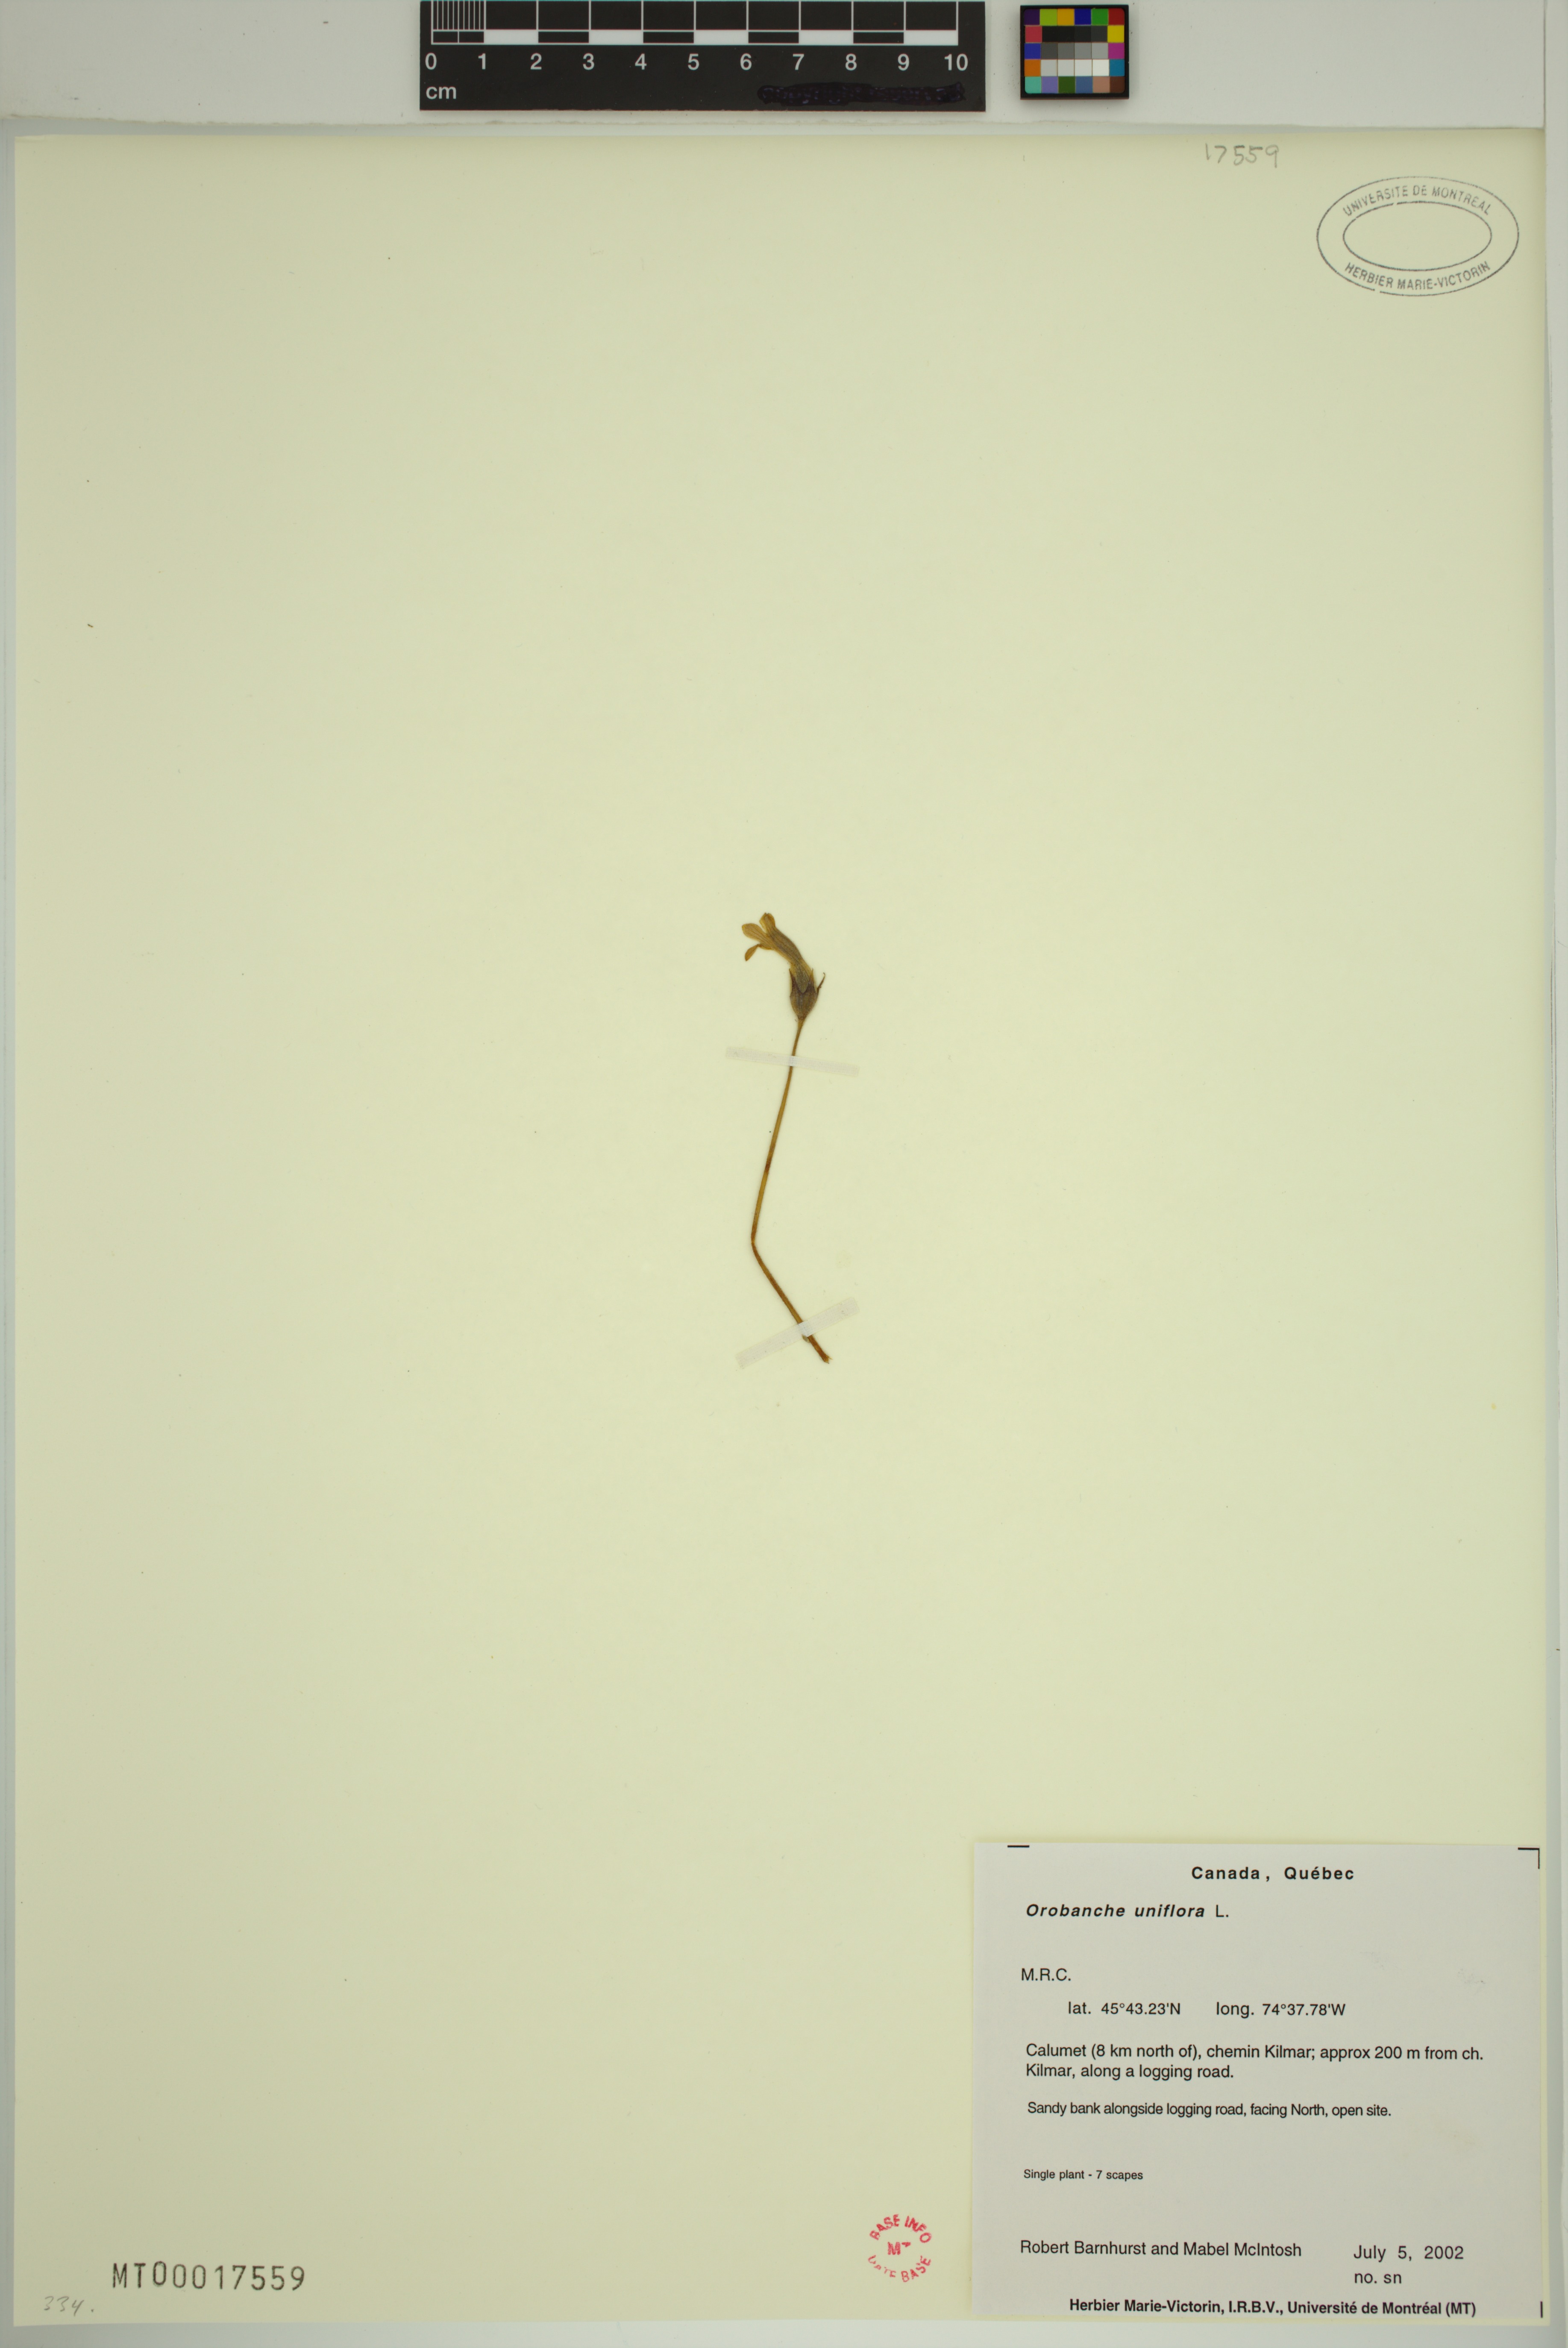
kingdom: Plantae
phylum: Tracheophyta
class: Magnoliopsida
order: Lamiales
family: Orobanchaceae
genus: Aphyllon
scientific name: Aphyllon uniflorum
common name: One-flowered broomrape
